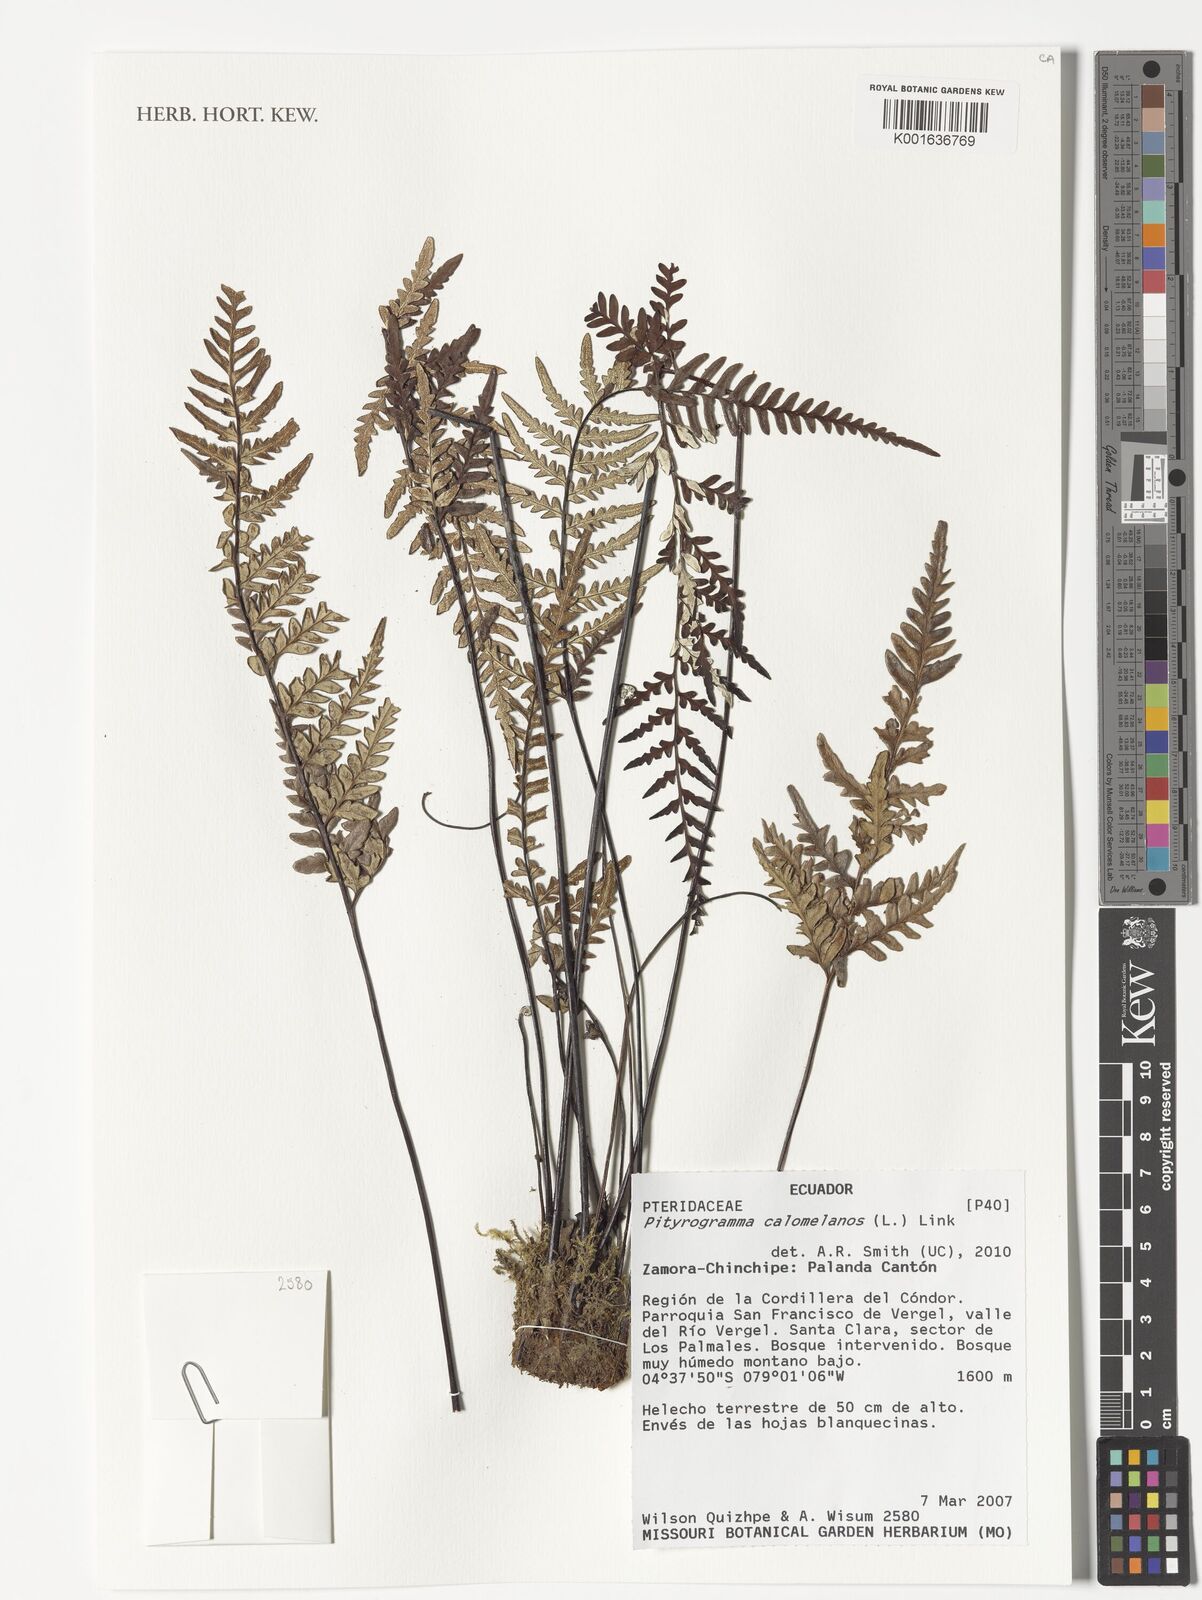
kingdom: Plantae
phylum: Tracheophyta
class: Polypodiopsida
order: Polypodiales
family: Pteridaceae
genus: Pityrogramma
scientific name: Pityrogramma calomelanos
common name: Dixie silverback fern
